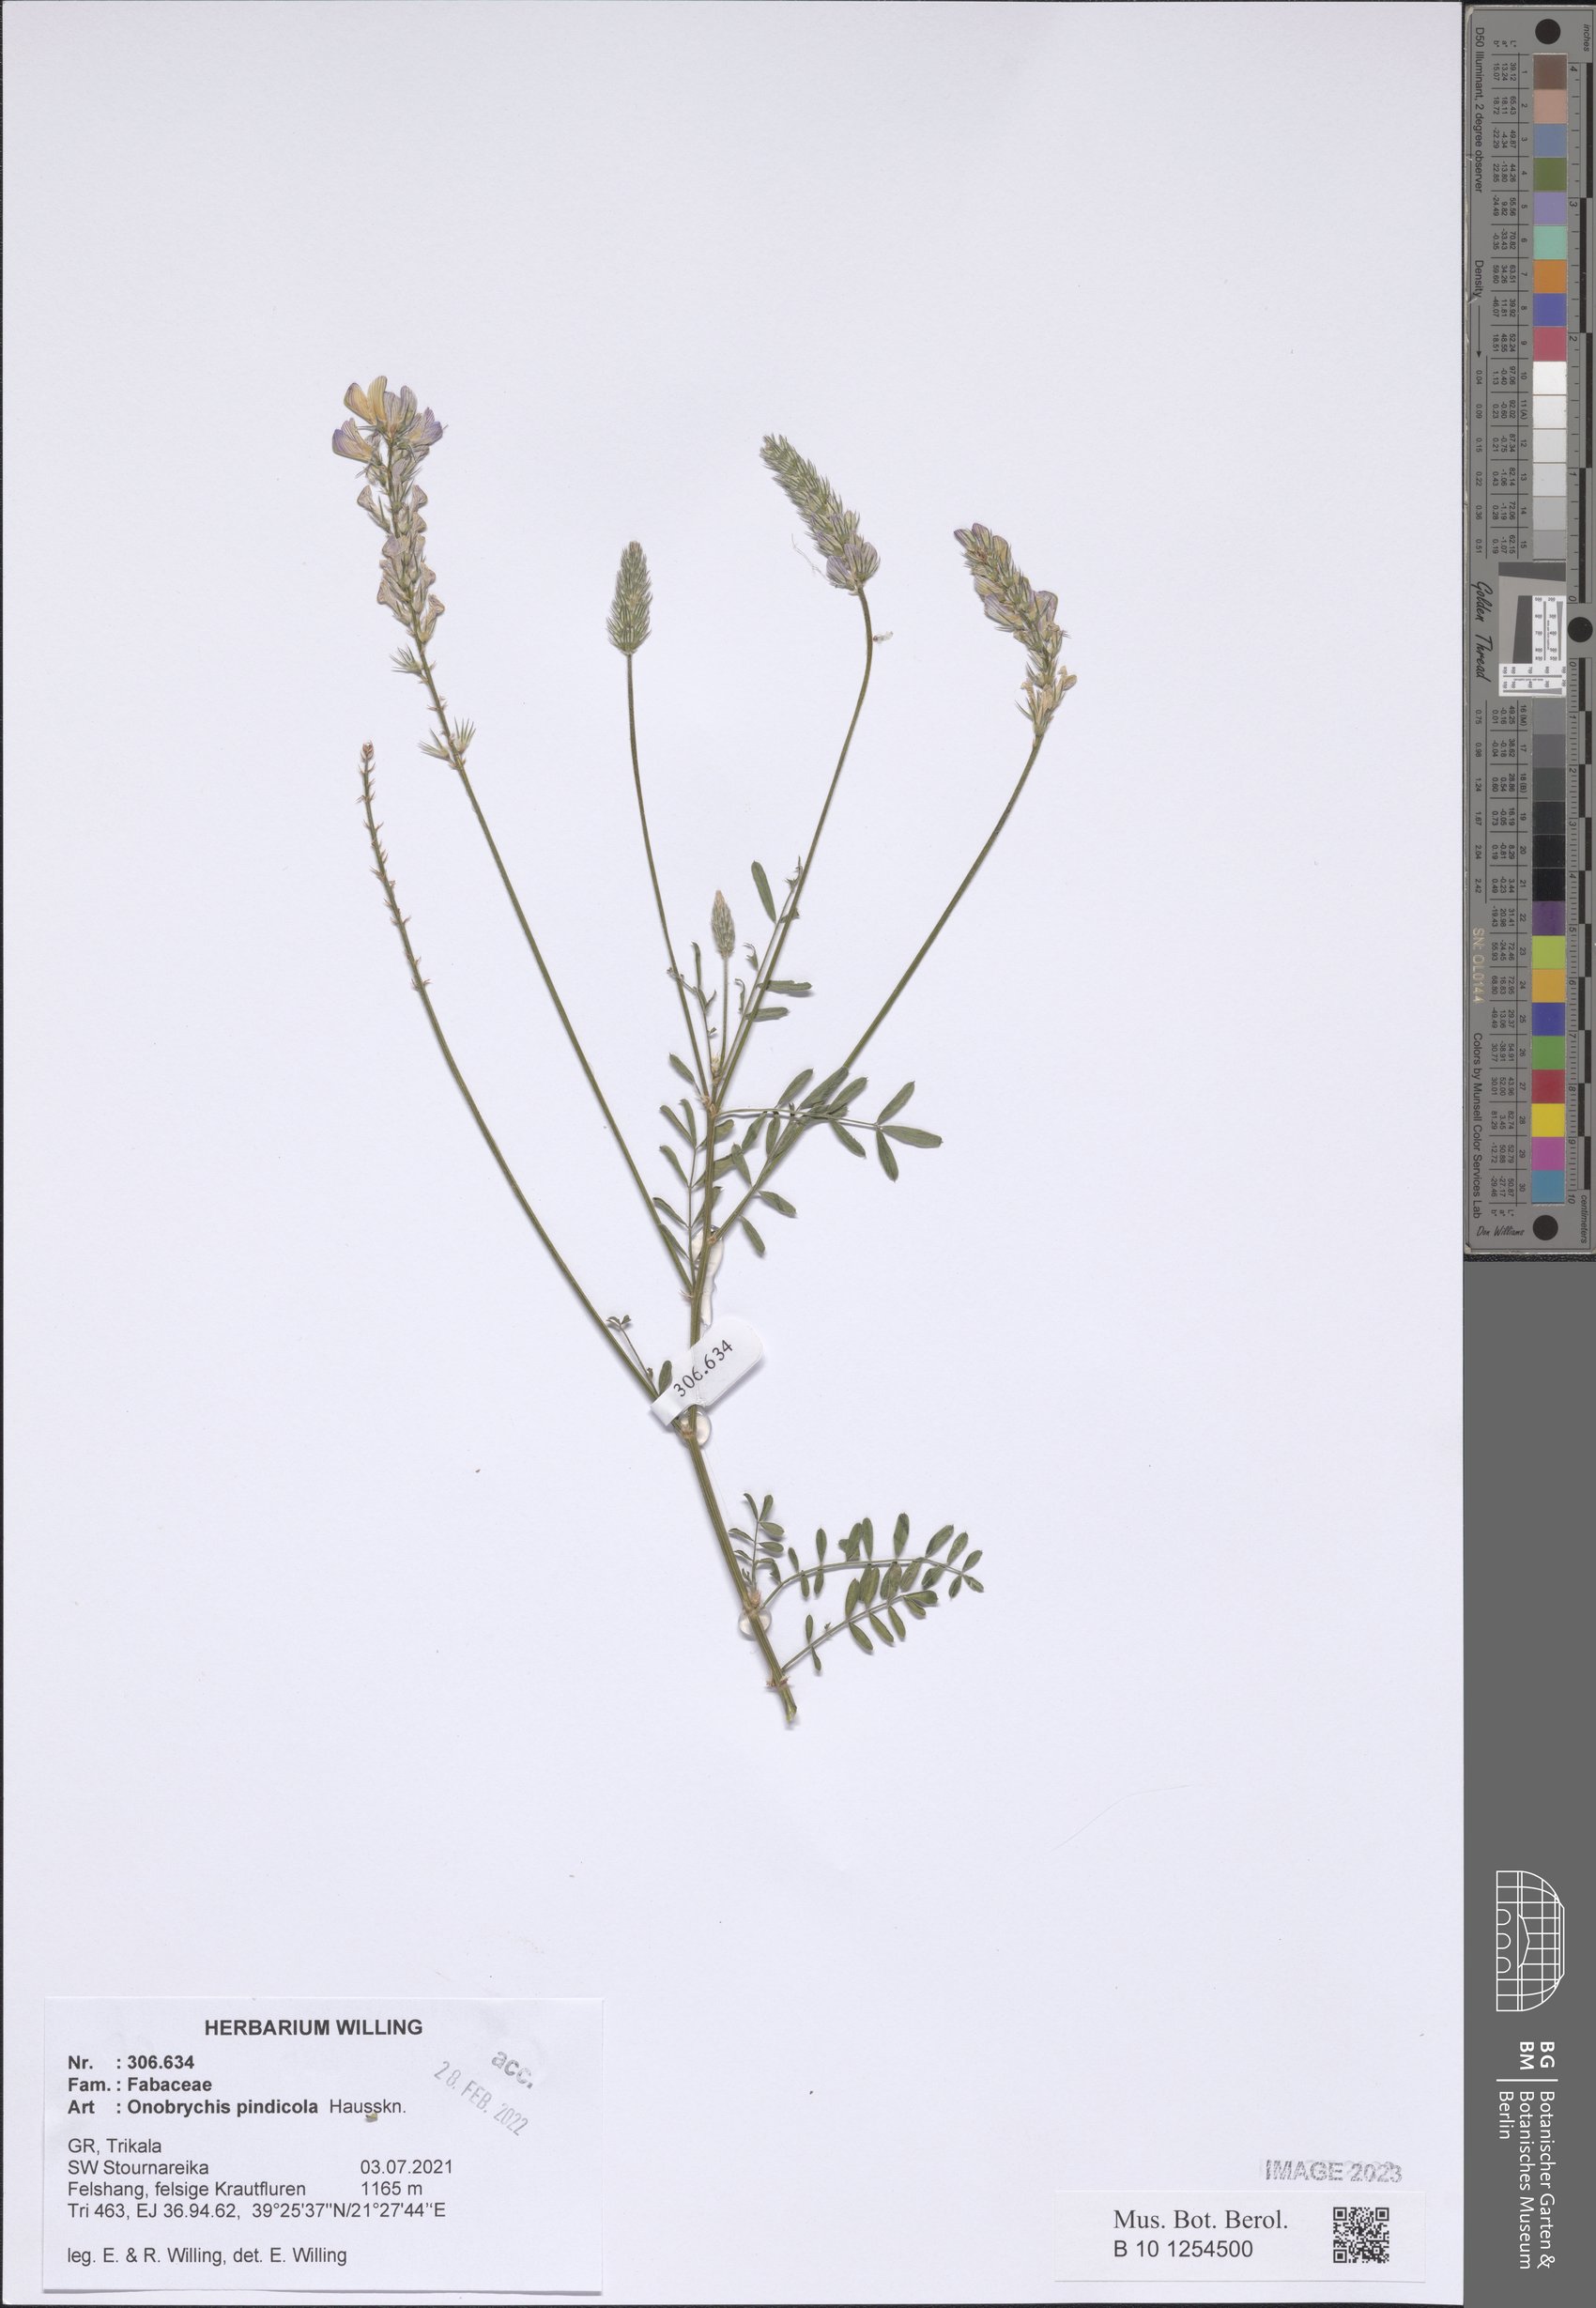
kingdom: Plantae
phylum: Tracheophyta
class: Magnoliopsida
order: Fabales
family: Fabaceae
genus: Onobrychis
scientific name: Onobrychis pindicola
